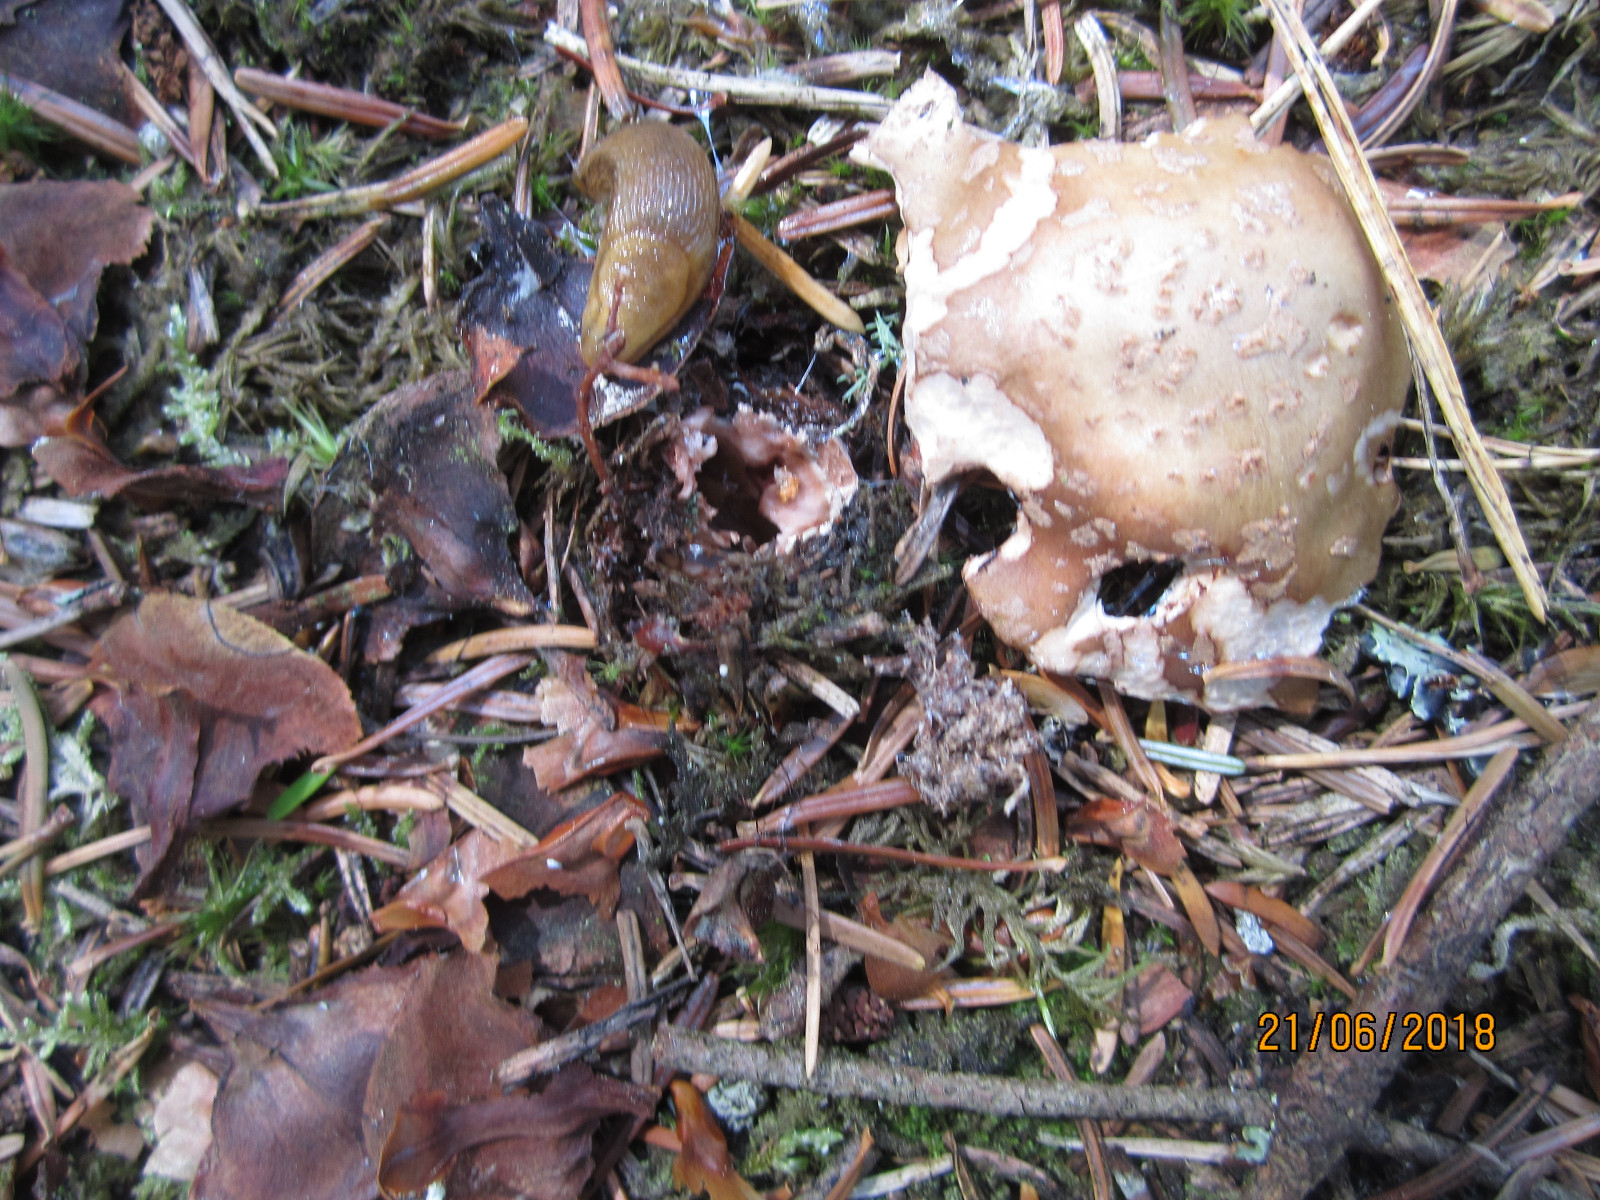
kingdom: Fungi
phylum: Basidiomycota
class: Agaricomycetes
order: Agaricales
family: Amanitaceae
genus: Amanita
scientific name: Amanita rubescens
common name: rødmende fluesvamp
